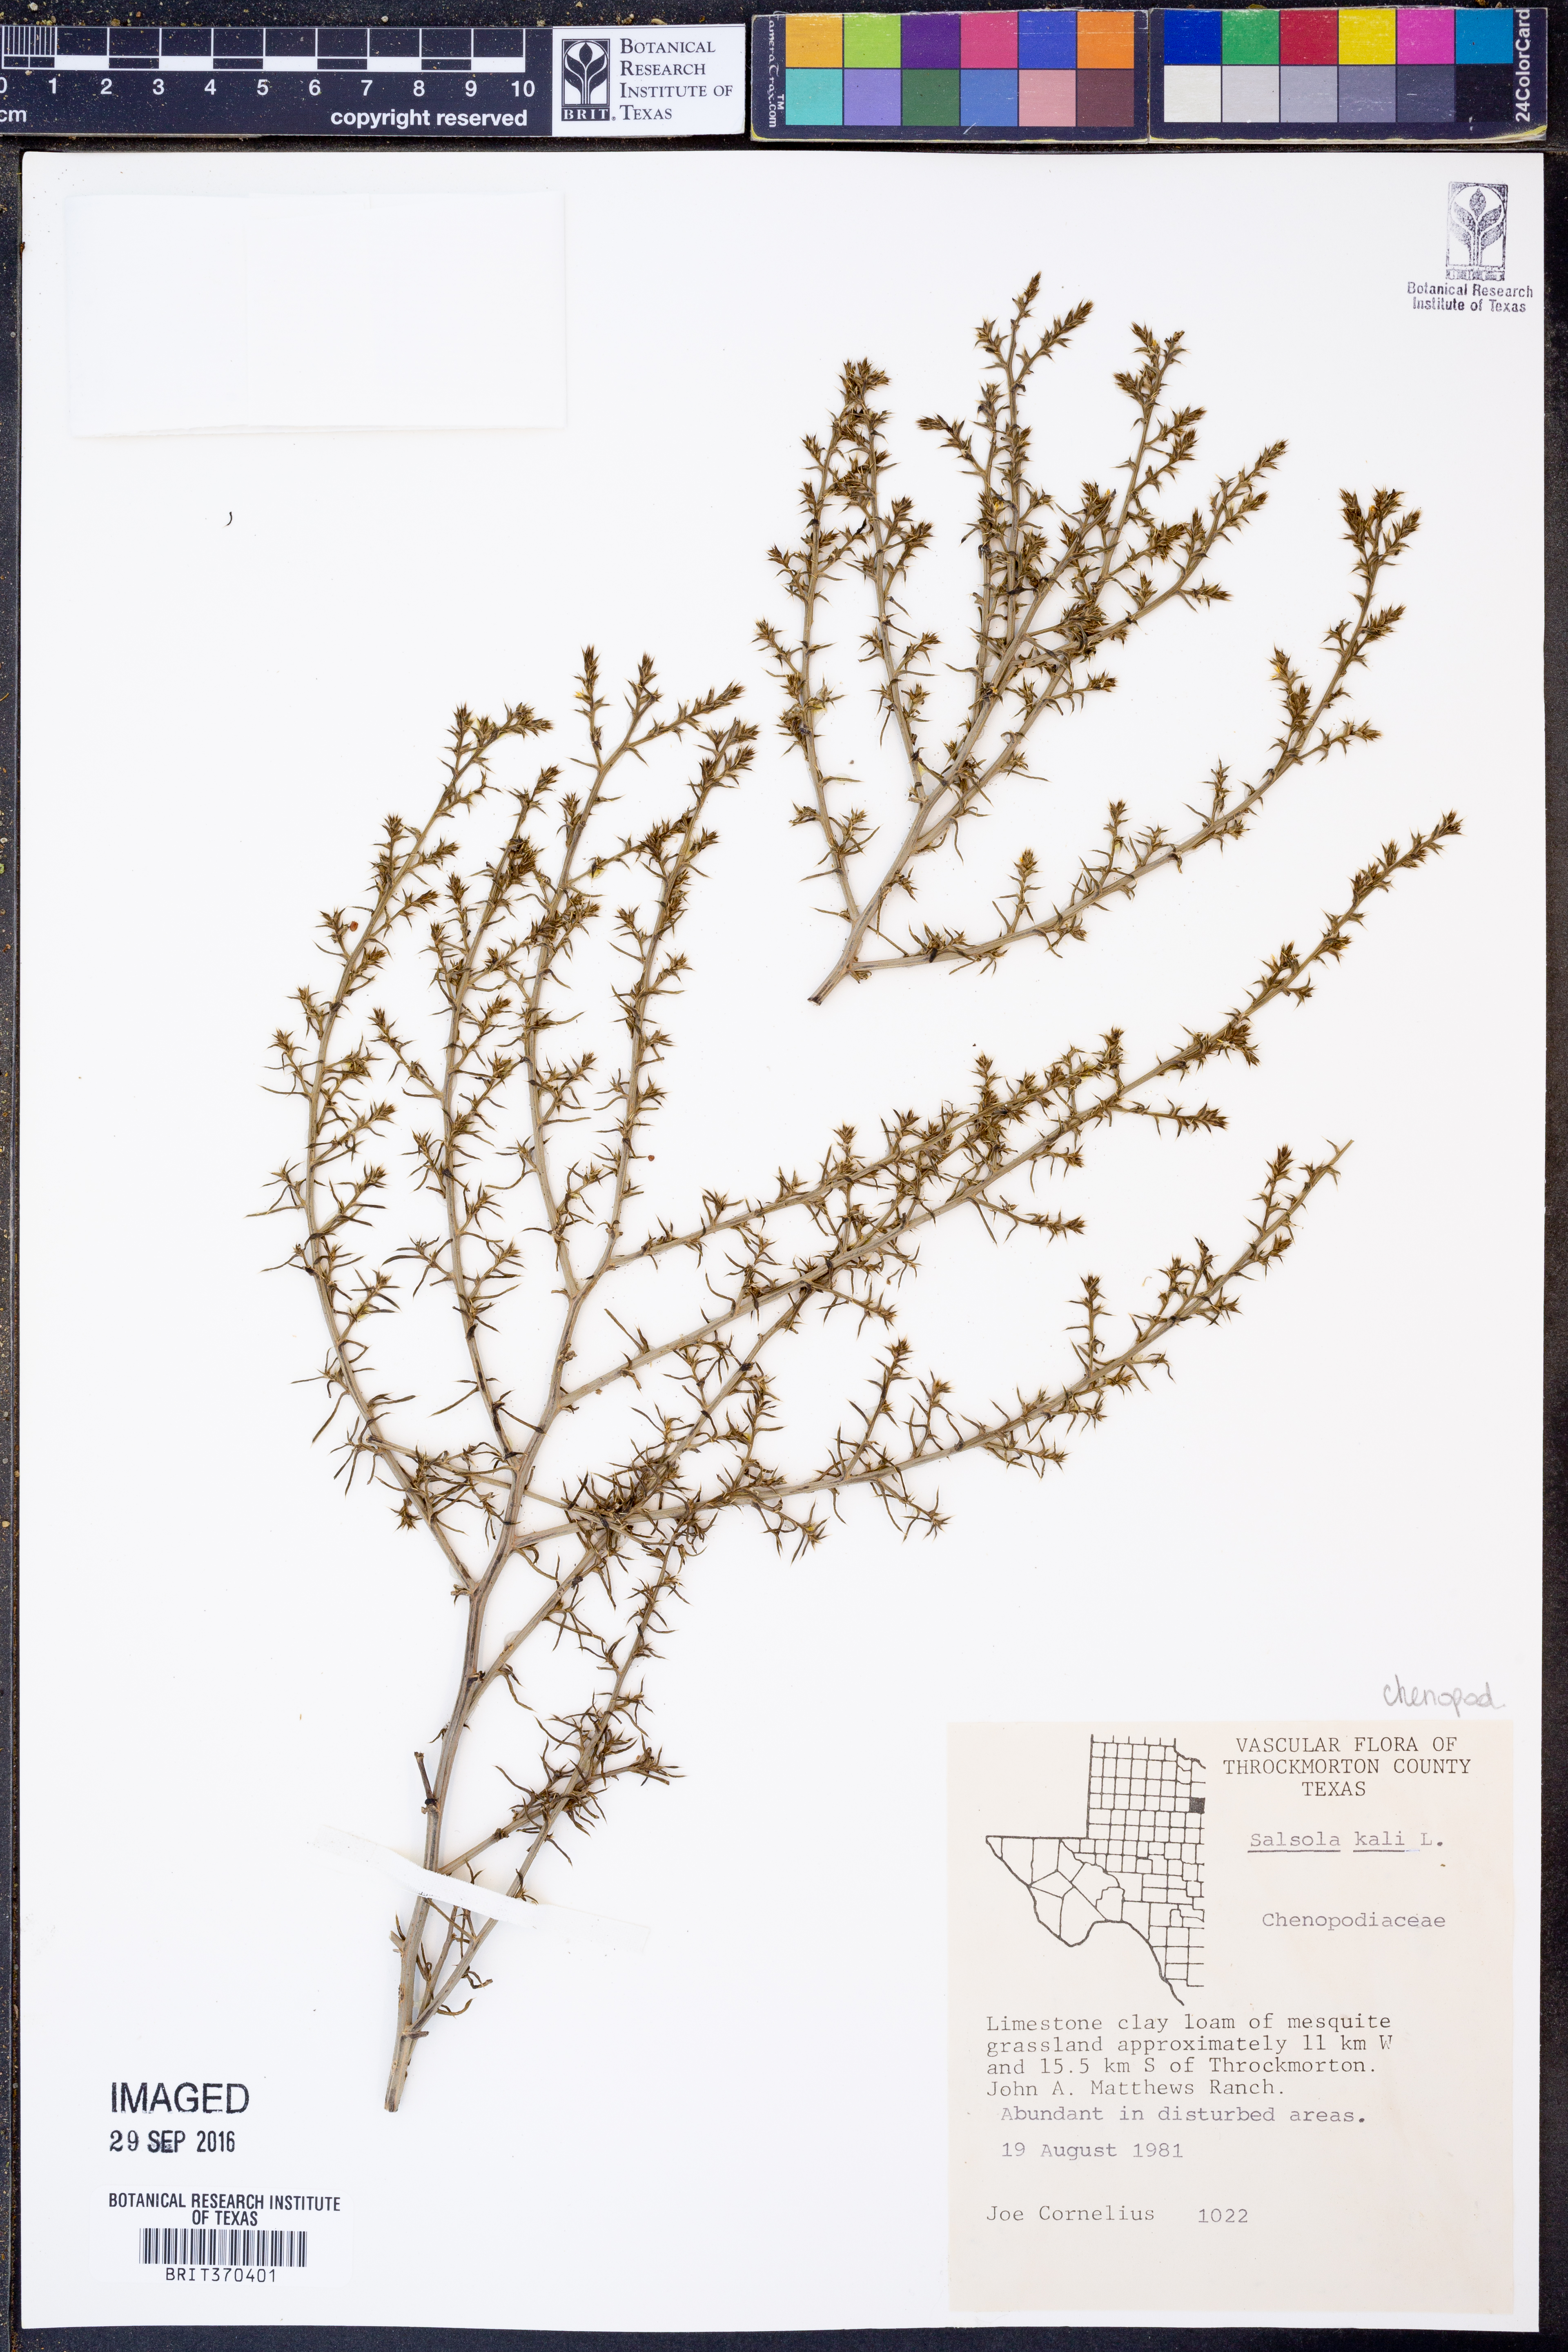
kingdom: Plantae
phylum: Tracheophyta
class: Magnoliopsida
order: Caryophyllales
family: Amaranthaceae
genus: Salsola
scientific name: Salsola kali
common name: Saltwort
